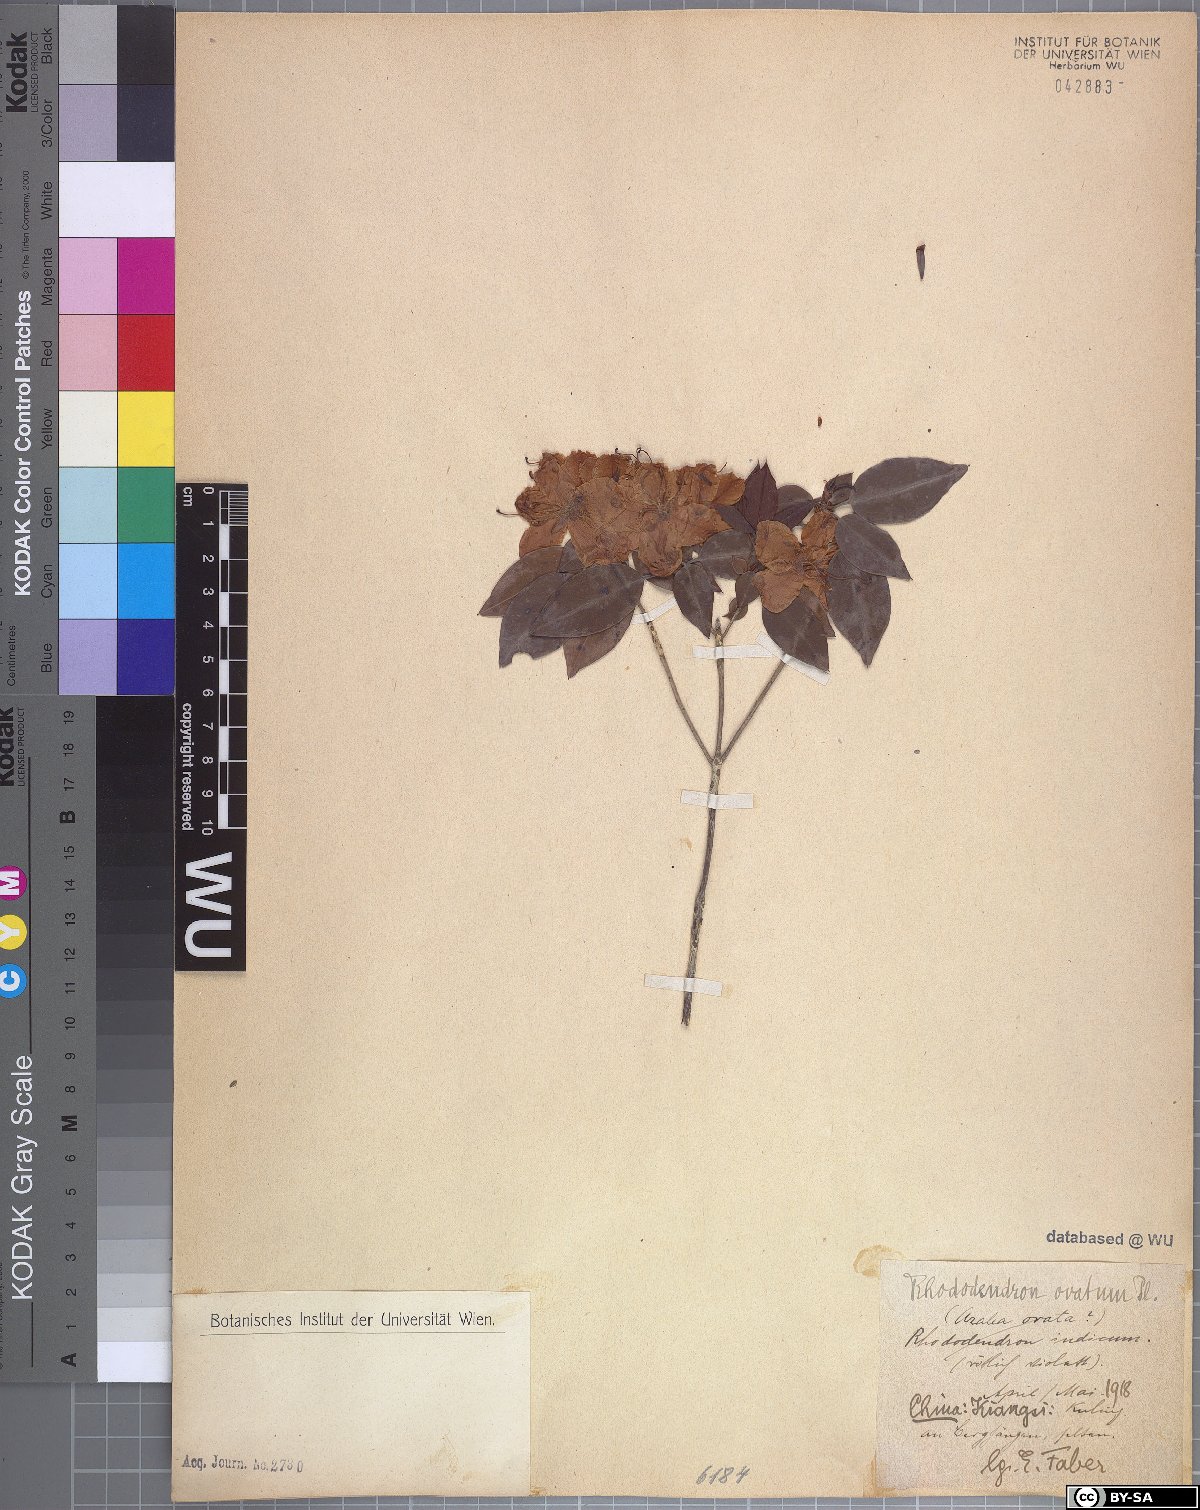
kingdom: Plantae
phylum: Tracheophyta
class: Magnoliopsida
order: Ericales
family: Ericaceae
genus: Rhododendron
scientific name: Rhododendron ovatum
